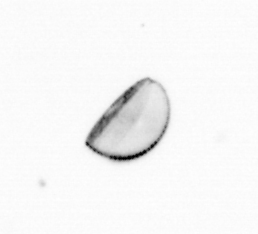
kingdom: Chromista
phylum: Ochrophyta
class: Bacillariophyceae
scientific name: Bacillariophyceae
